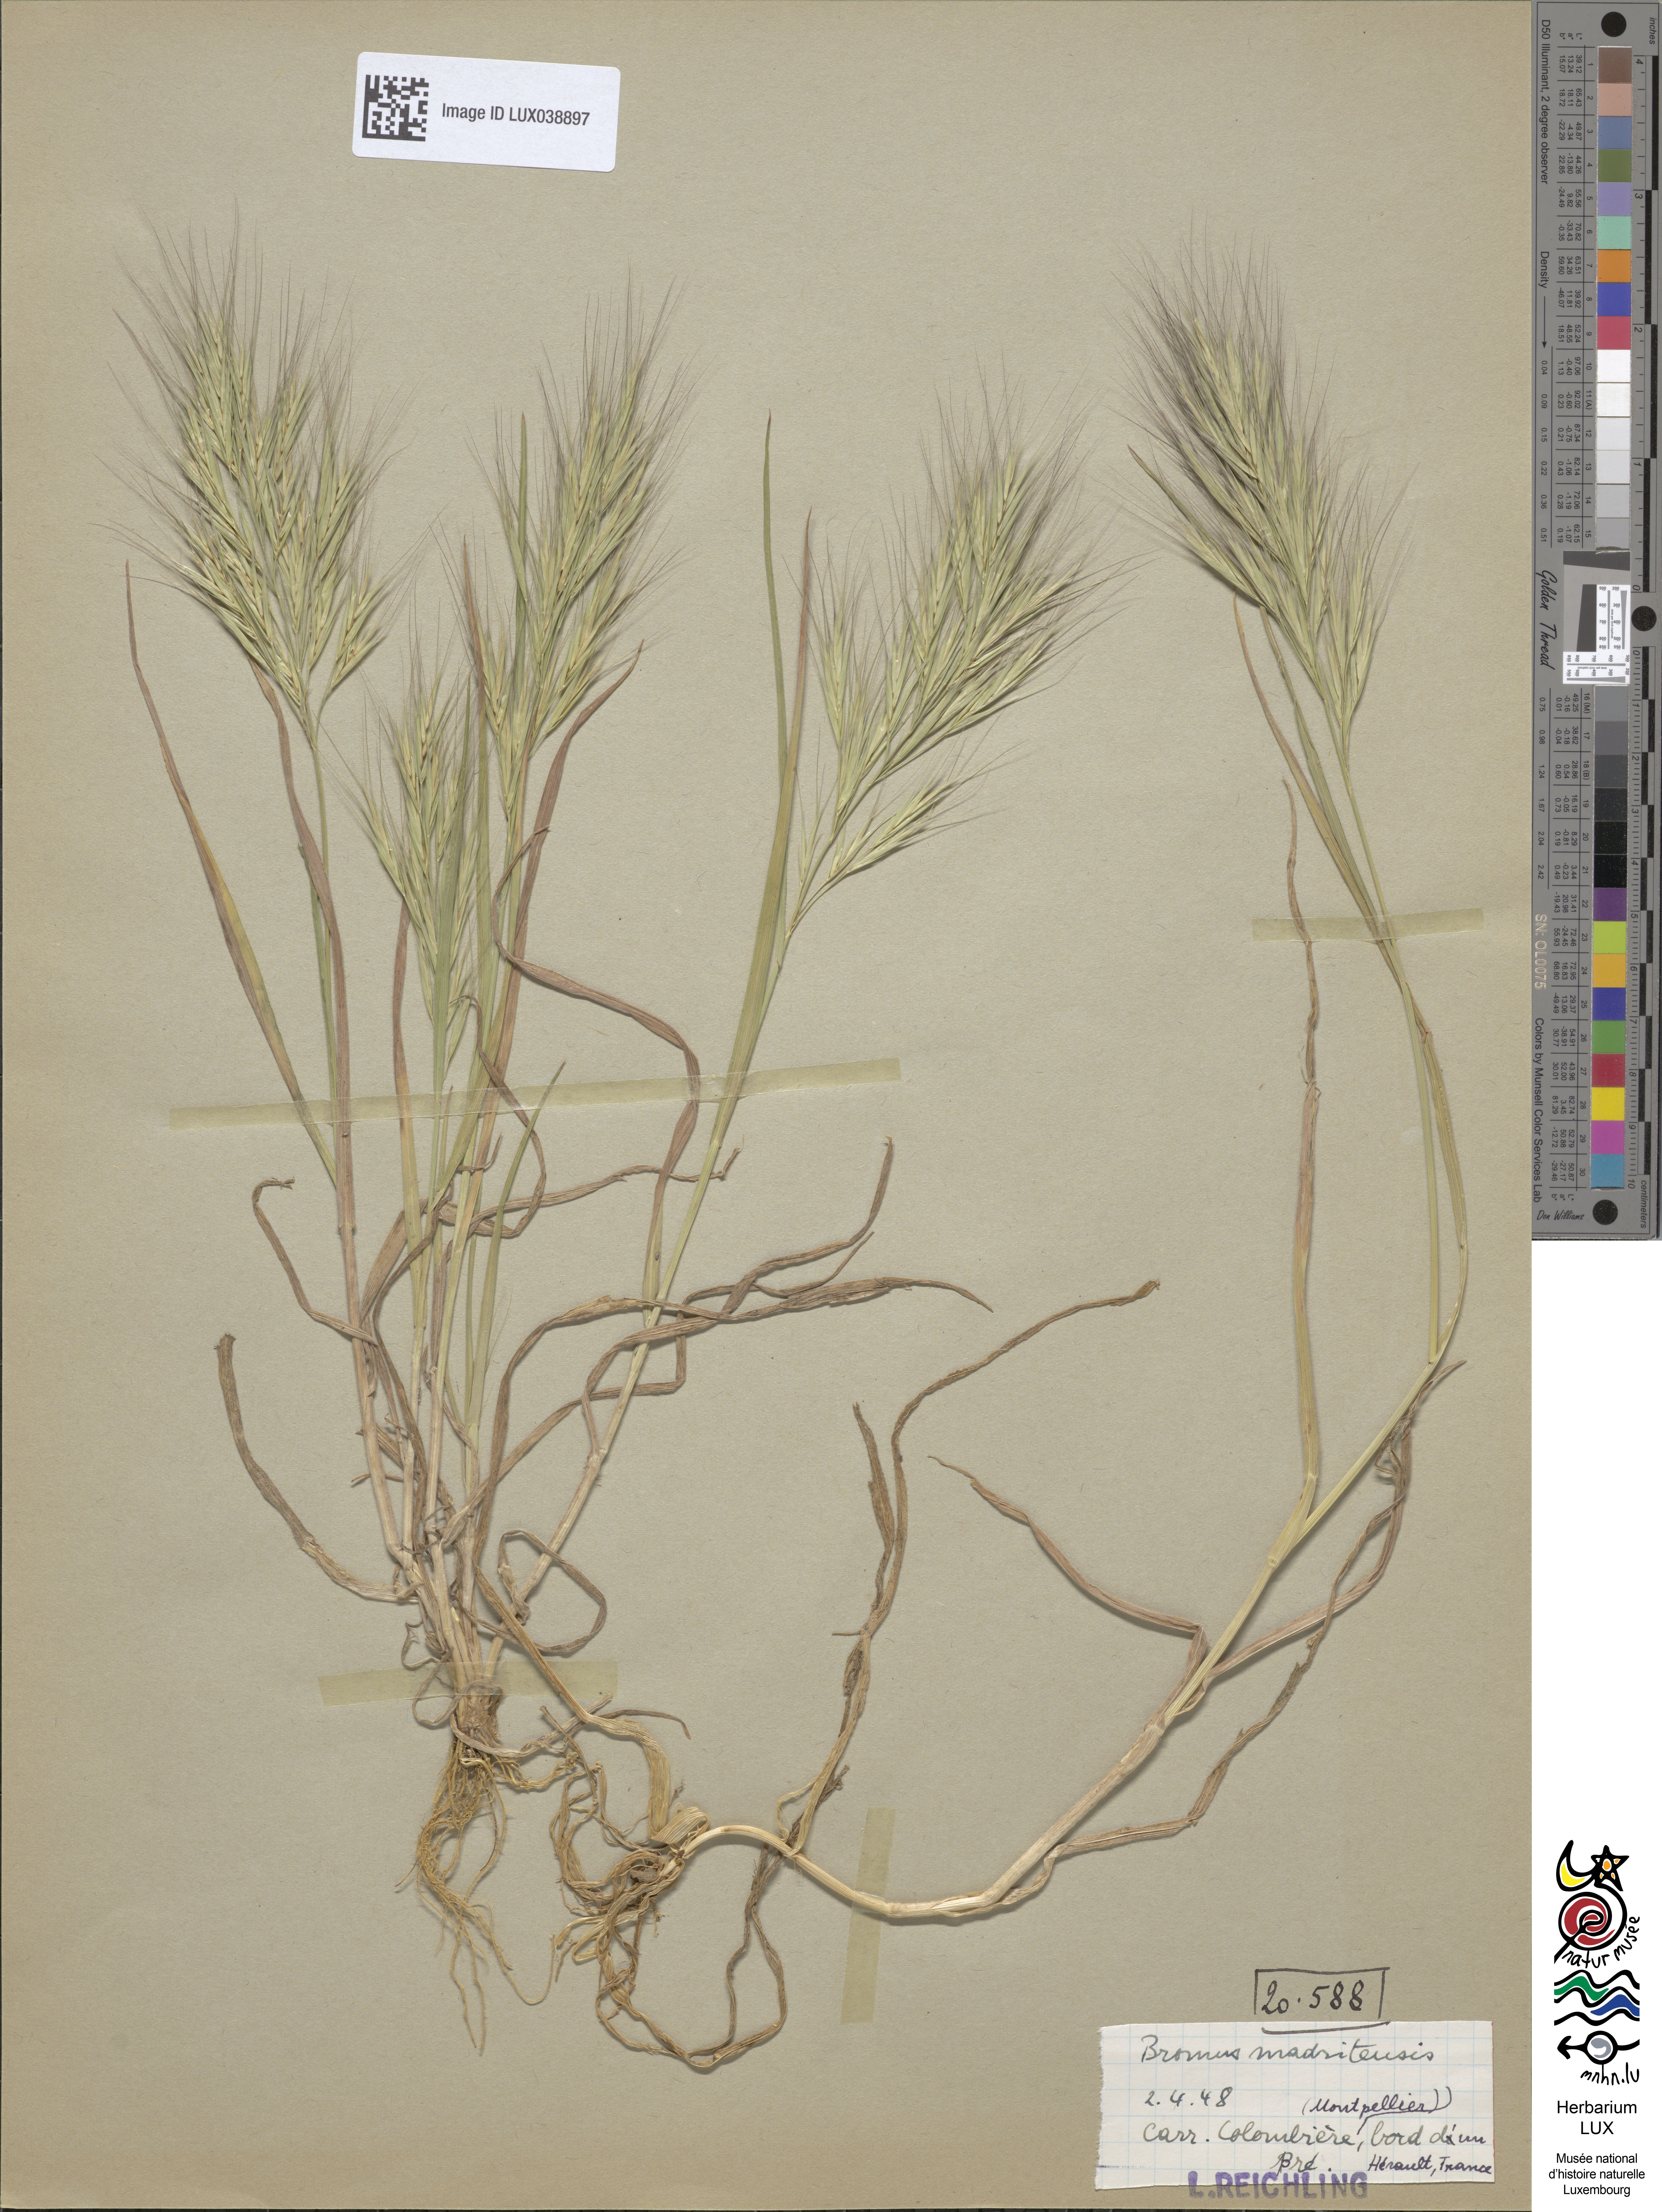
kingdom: Plantae
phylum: Tracheophyta
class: Liliopsida
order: Poales
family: Poaceae
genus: Bromus
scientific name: Bromus madritensis
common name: Compact brome
